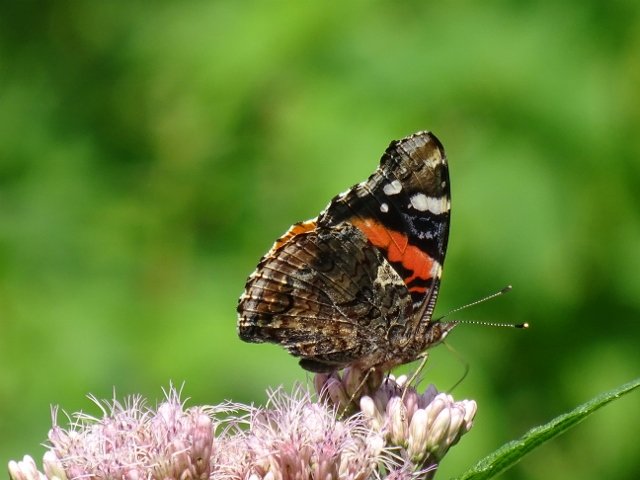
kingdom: Animalia
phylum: Arthropoda
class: Insecta
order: Lepidoptera
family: Nymphalidae
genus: Vanessa
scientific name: Vanessa atalanta
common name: Red Admiral
